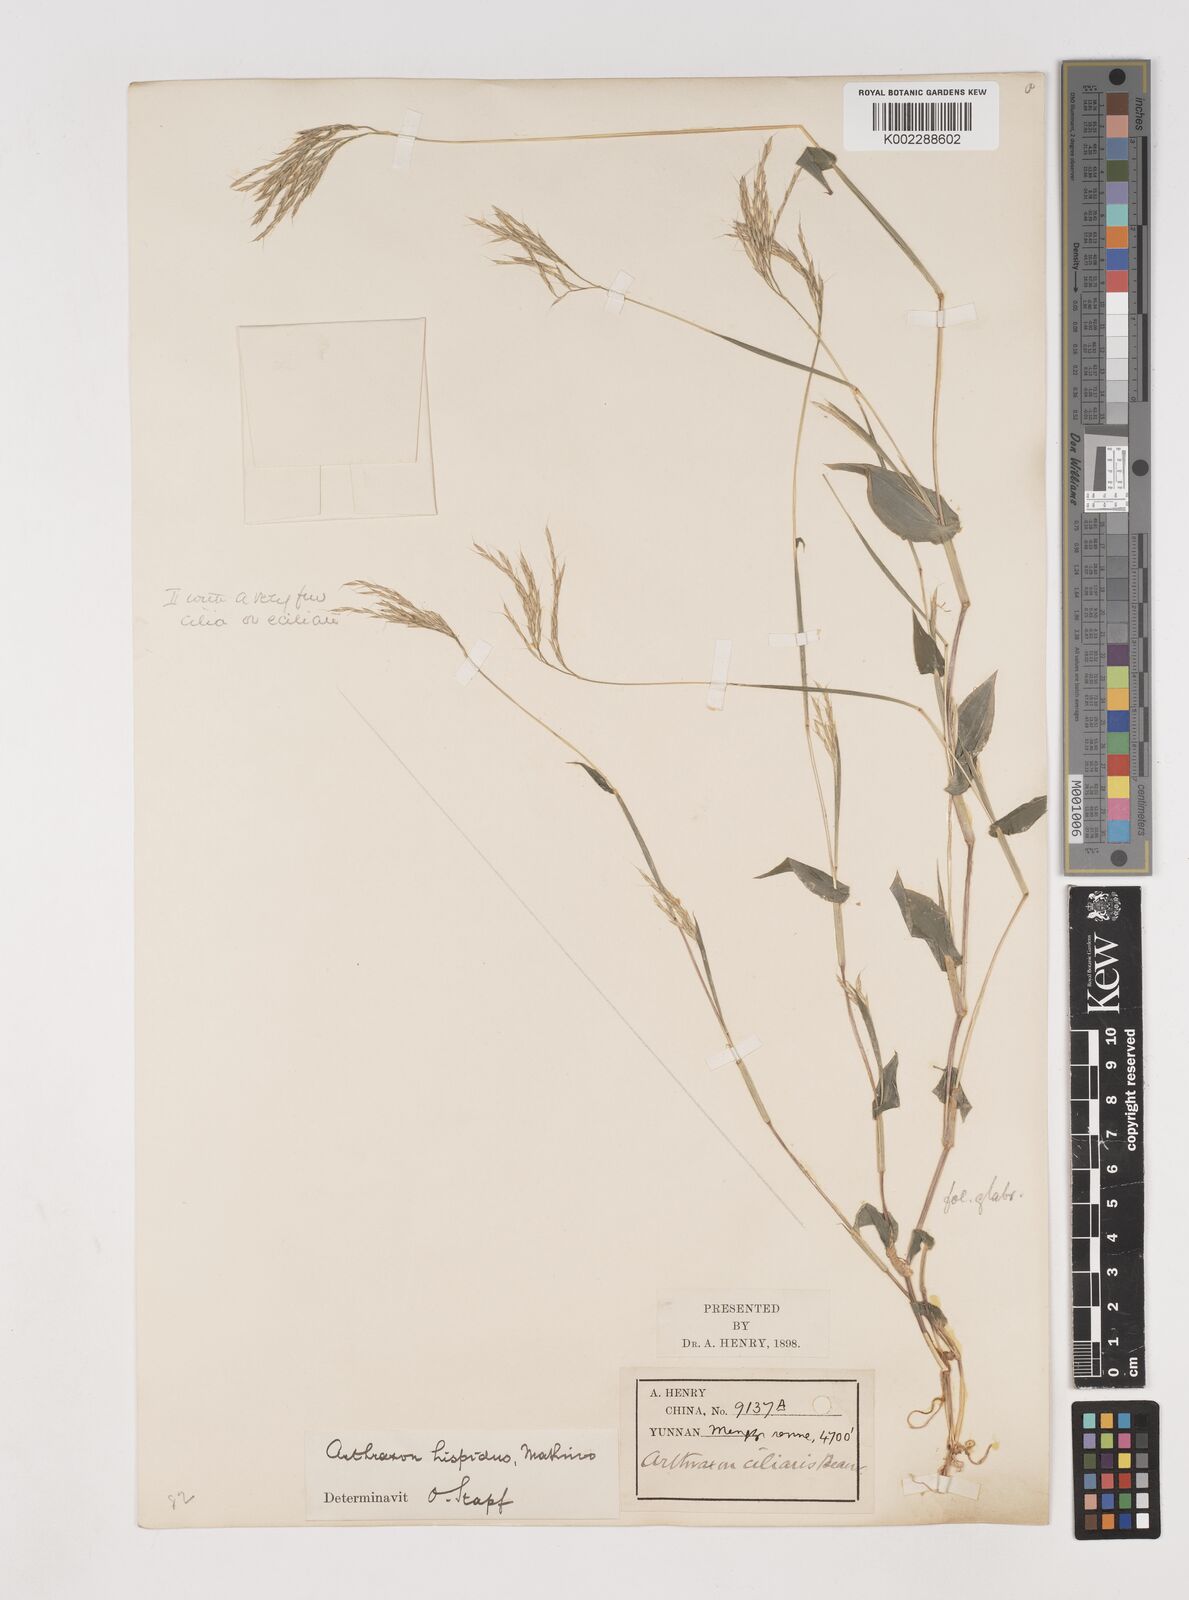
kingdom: Plantae
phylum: Tracheophyta
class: Liliopsida
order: Poales
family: Poaceae
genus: Arthraxon
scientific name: Arthraxon hispidus
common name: Small carpgrass
